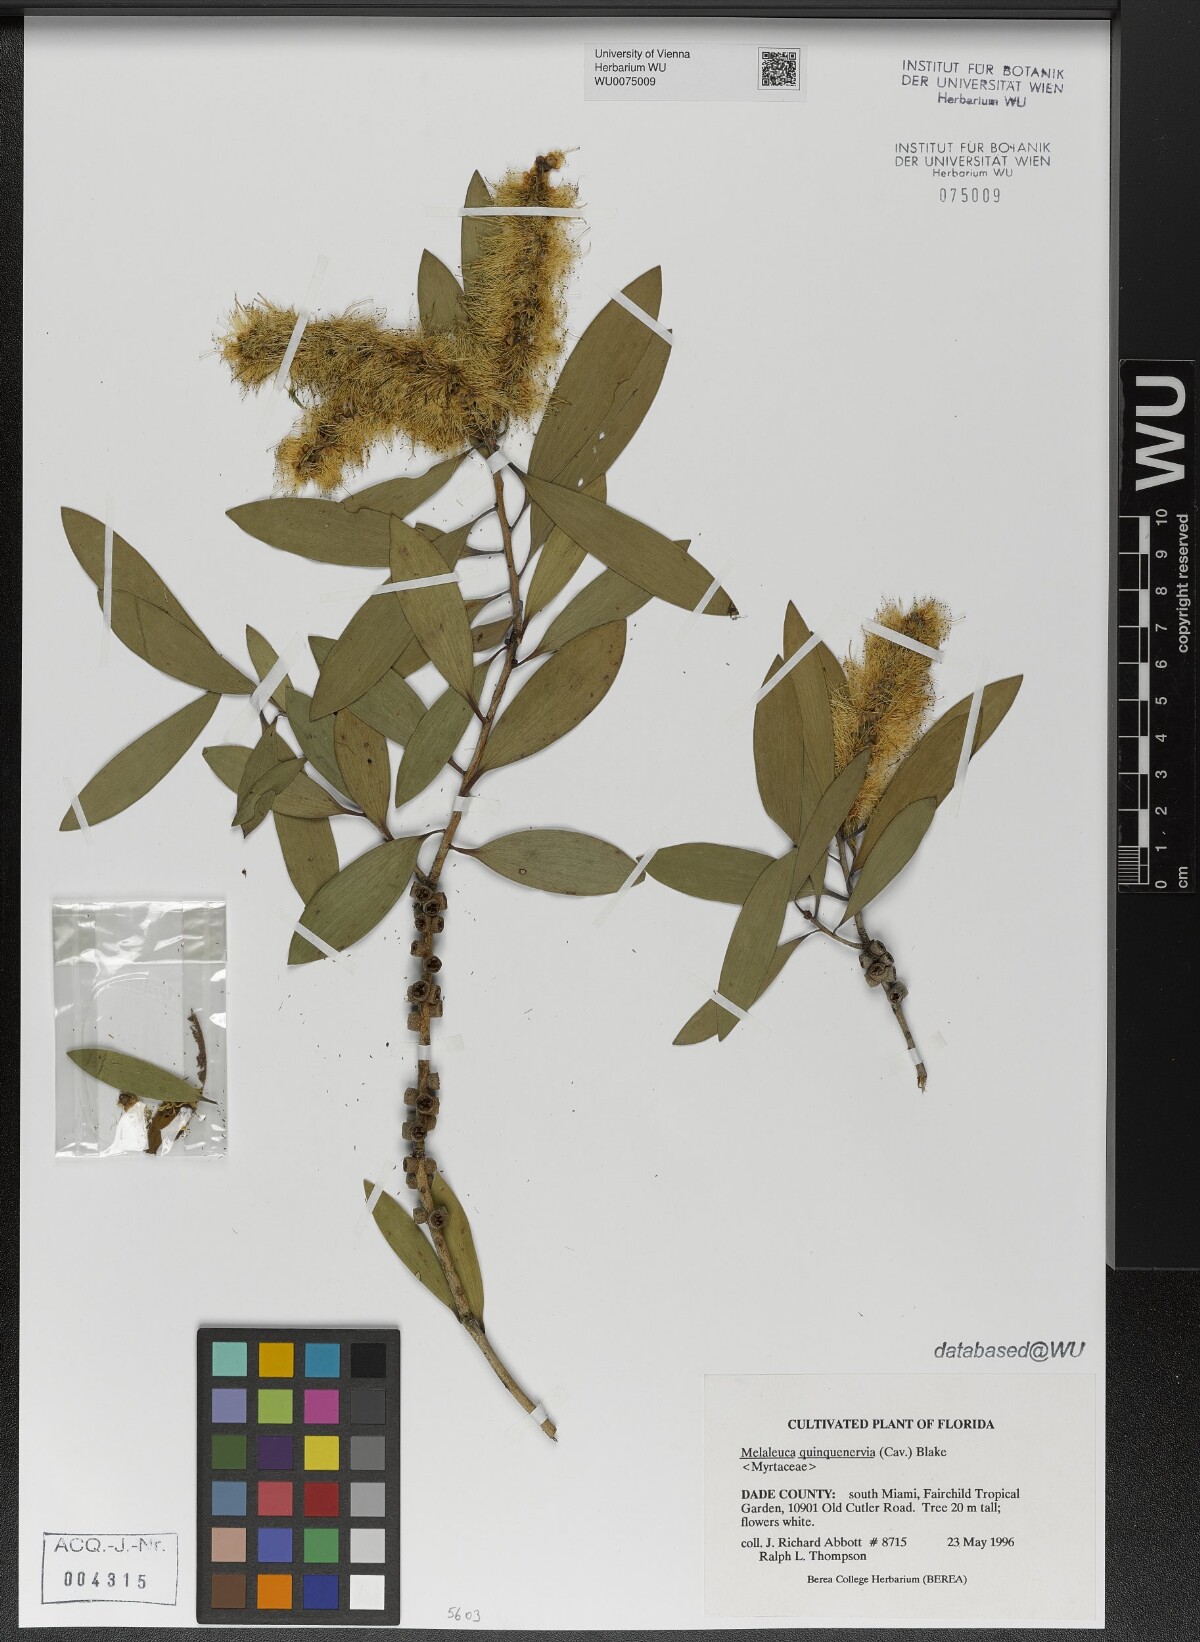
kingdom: Plantae
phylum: Tracheophyta
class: Magnoliopsida
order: Myrtales
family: Myrtaceae
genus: Melaleuca
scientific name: Melaleuca quinquenervia
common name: Punktree
